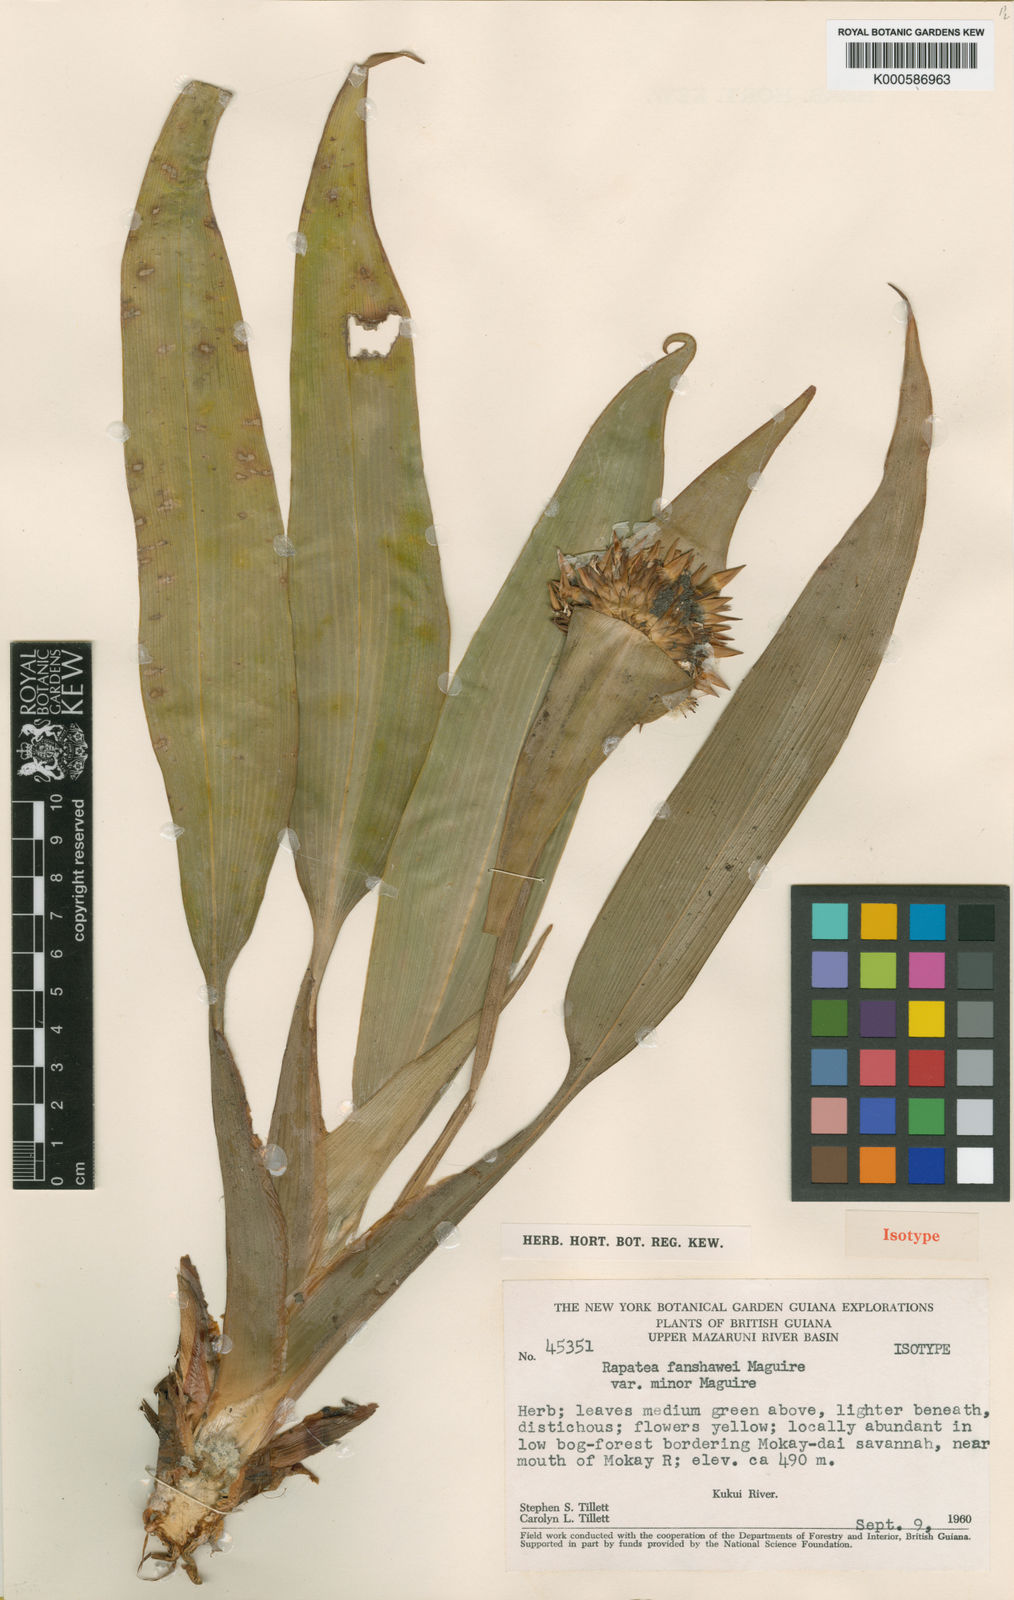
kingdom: Plantae
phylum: Tracheophyta
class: Liliopsida
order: Poales
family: Rapateaceae
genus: Rapatea
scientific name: Rapatea fanshawei
